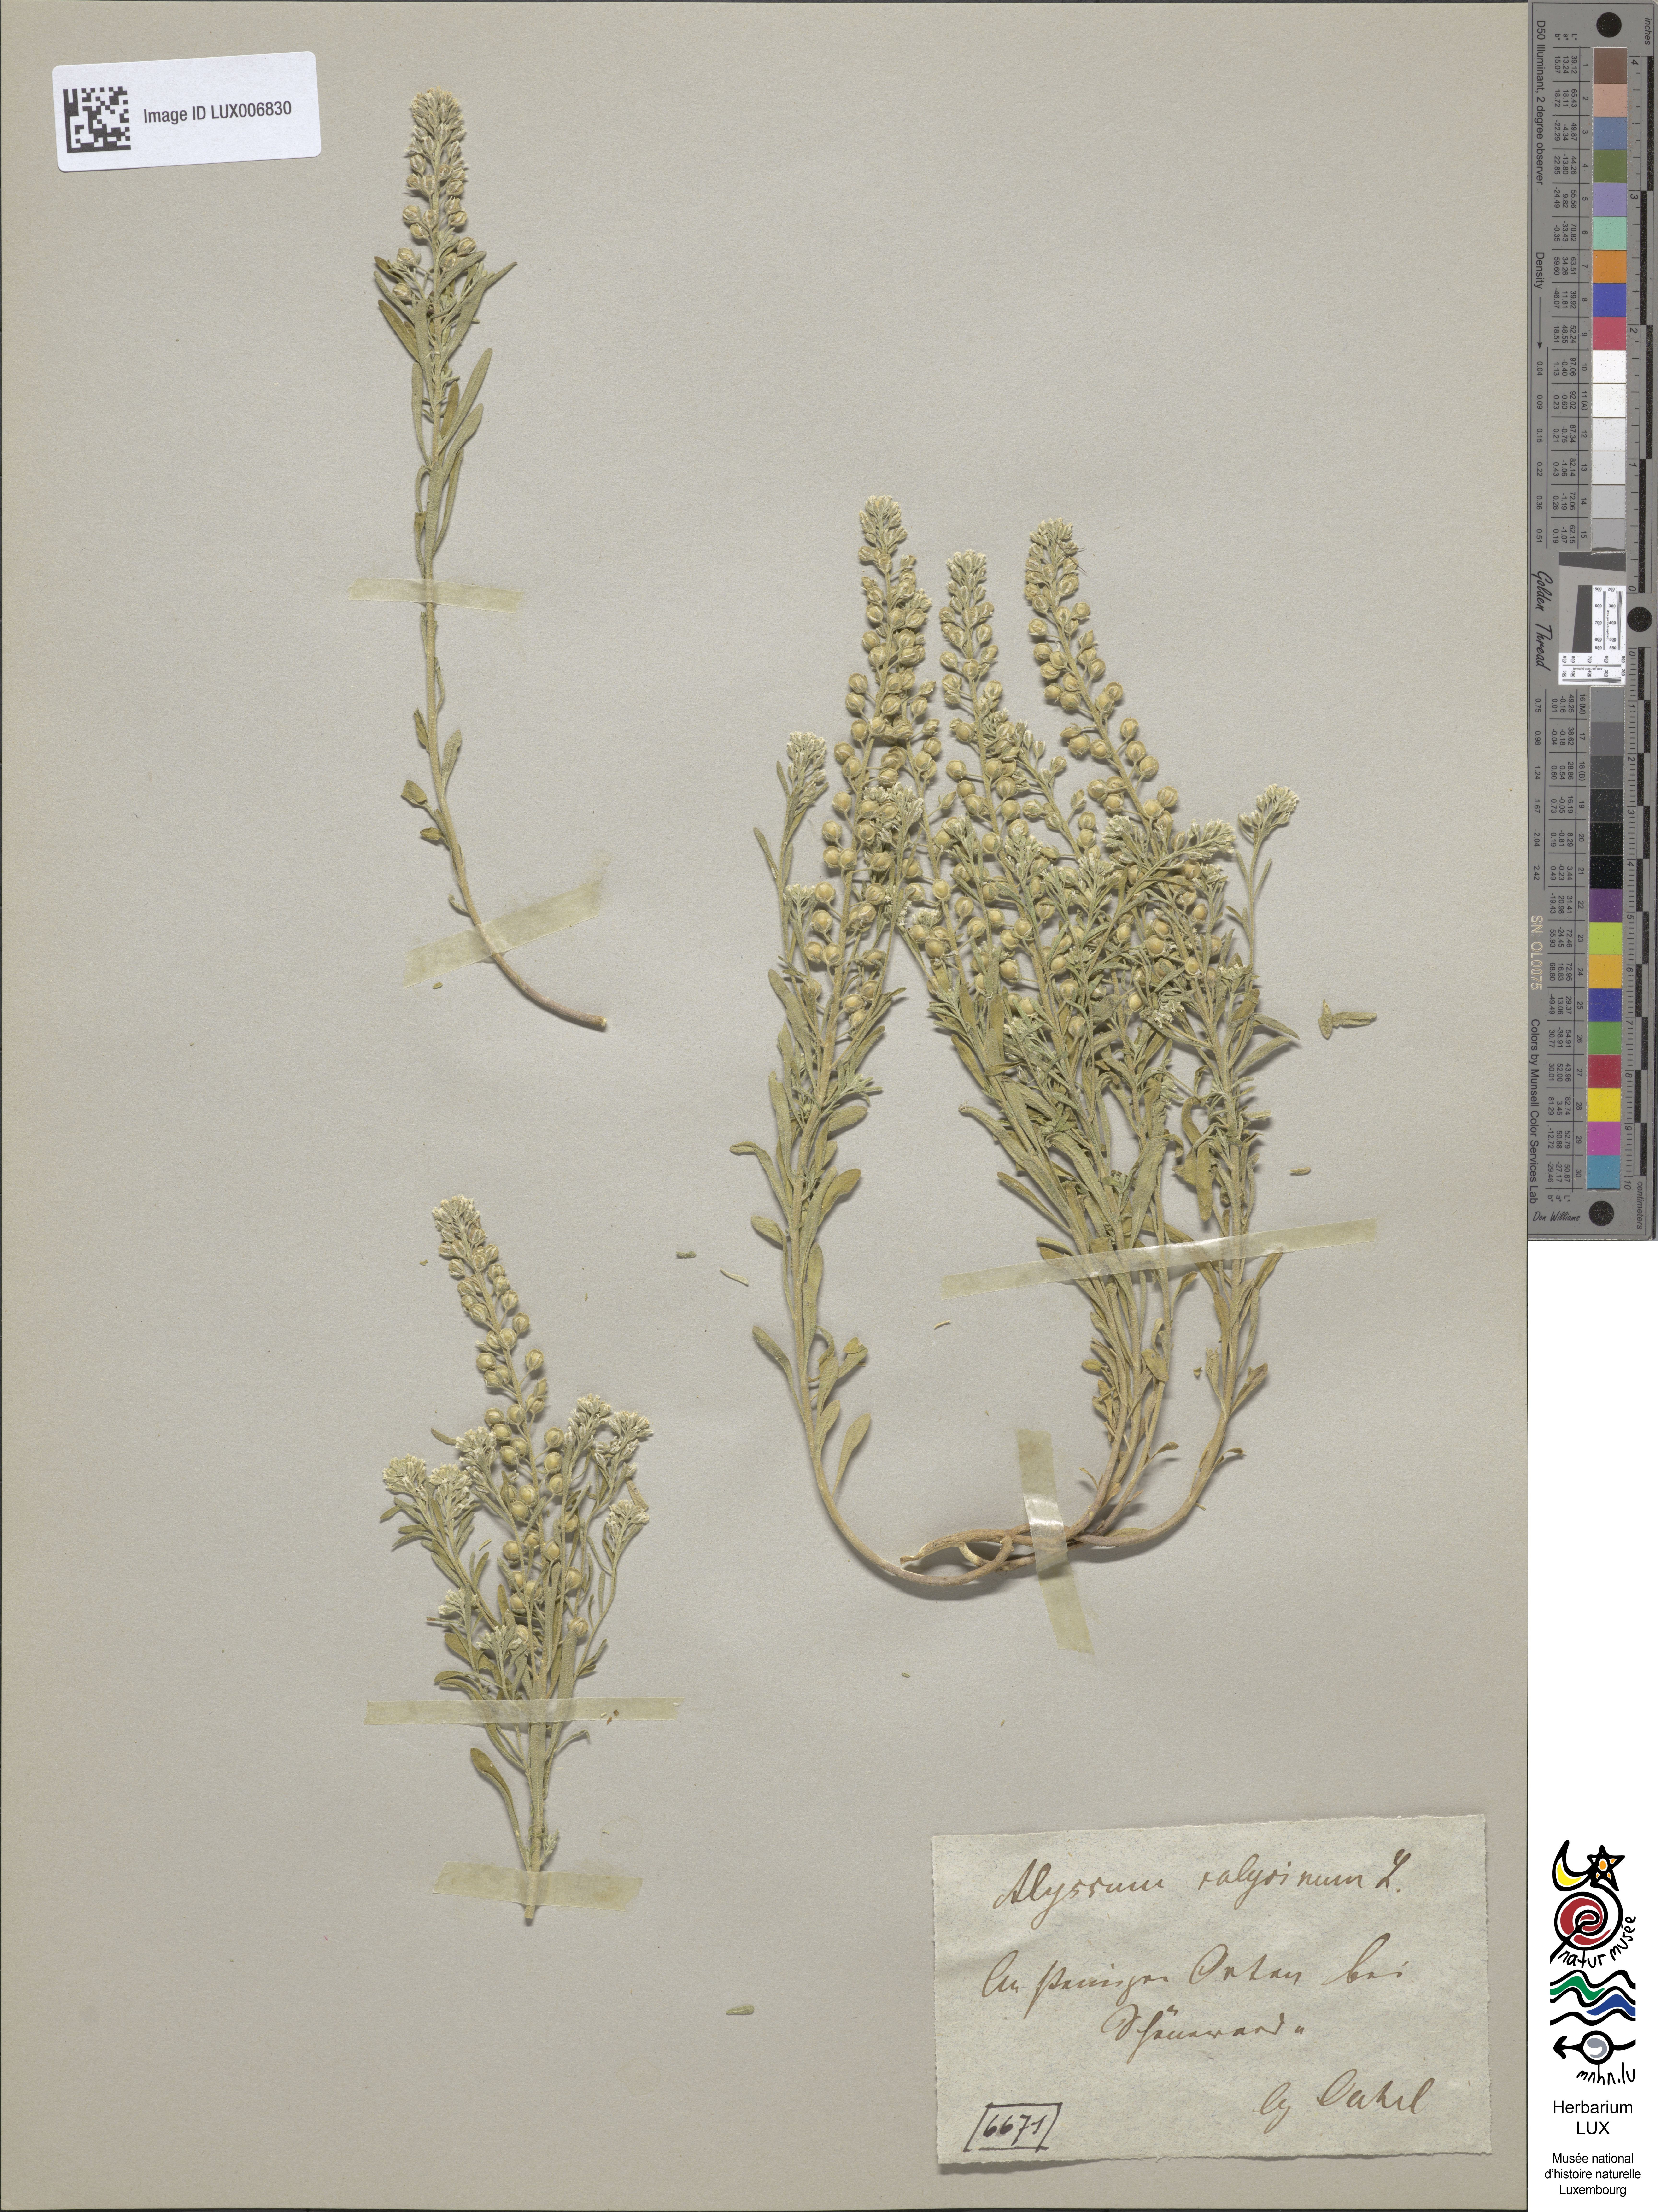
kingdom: Plantae
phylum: Tracheophyta
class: Magnoliopsida
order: Brassicales
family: Brassicaceae
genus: Alyssum
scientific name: Alyssum alyssoides
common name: Small alison
